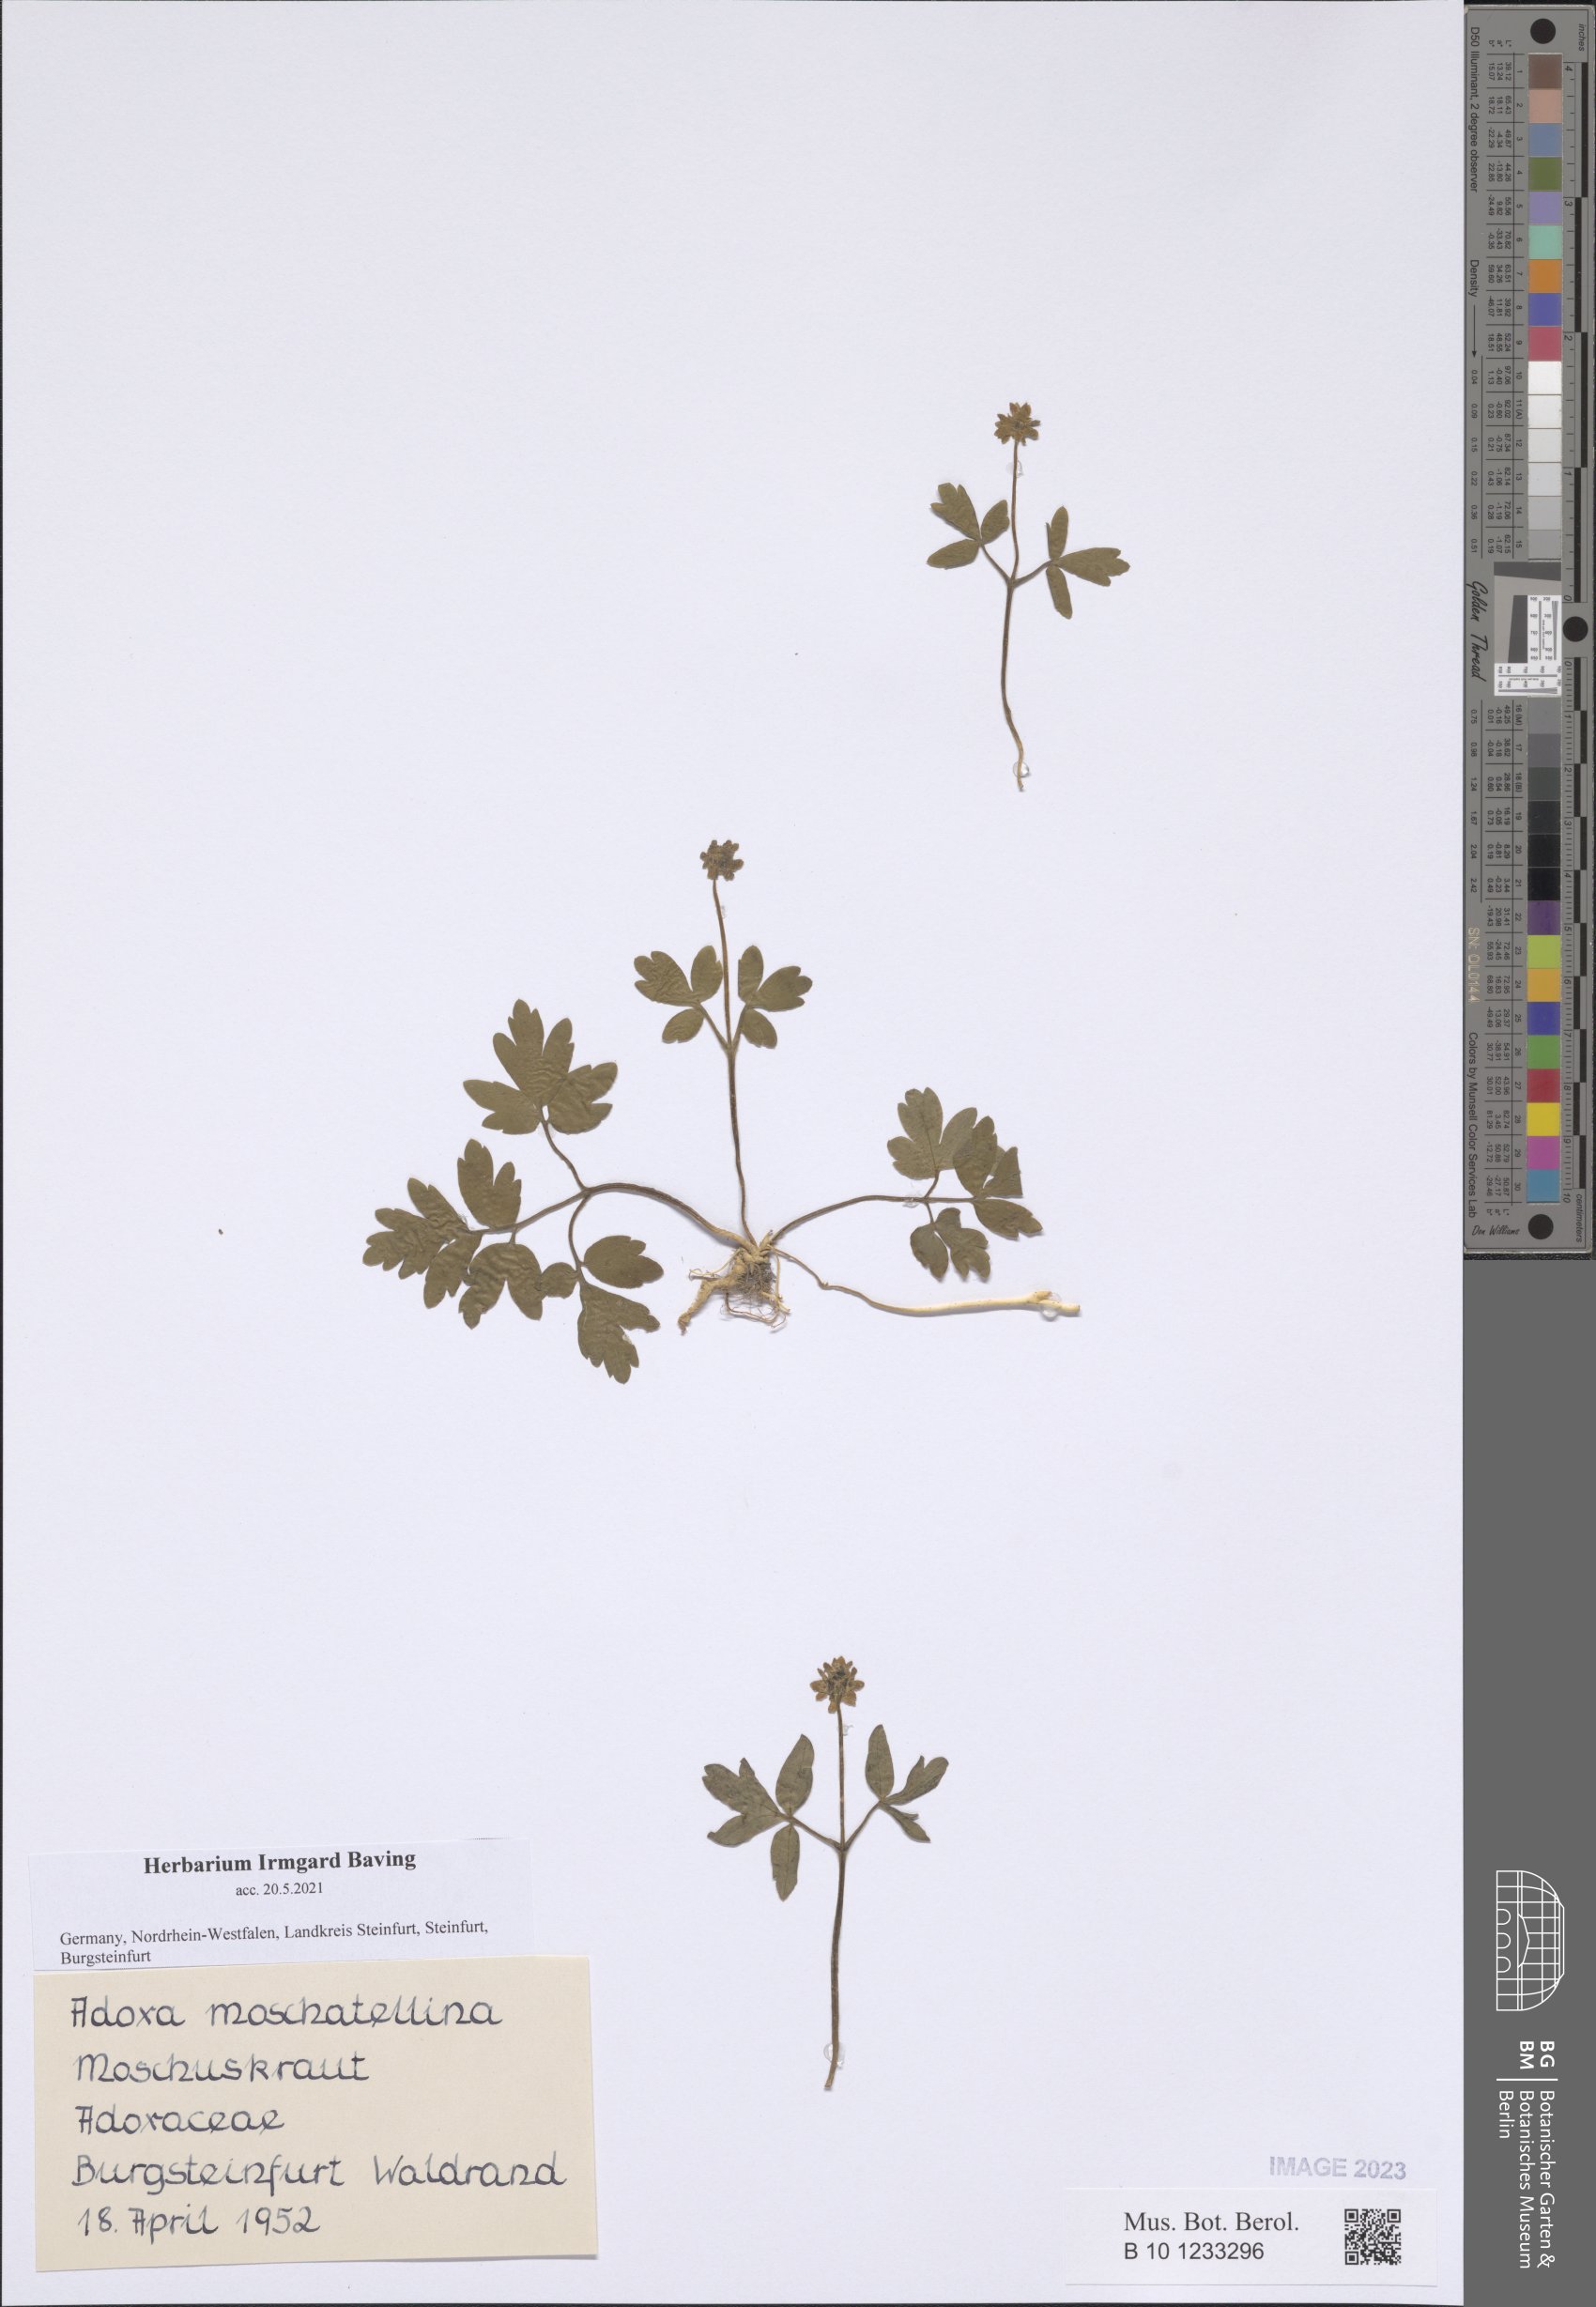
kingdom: Plantae
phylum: Tracheophyta
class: Magnoliopsida
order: Dipsacales
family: Viburnaceae
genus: Adoxa
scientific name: Adoxa moschatellina
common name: Moschatel
